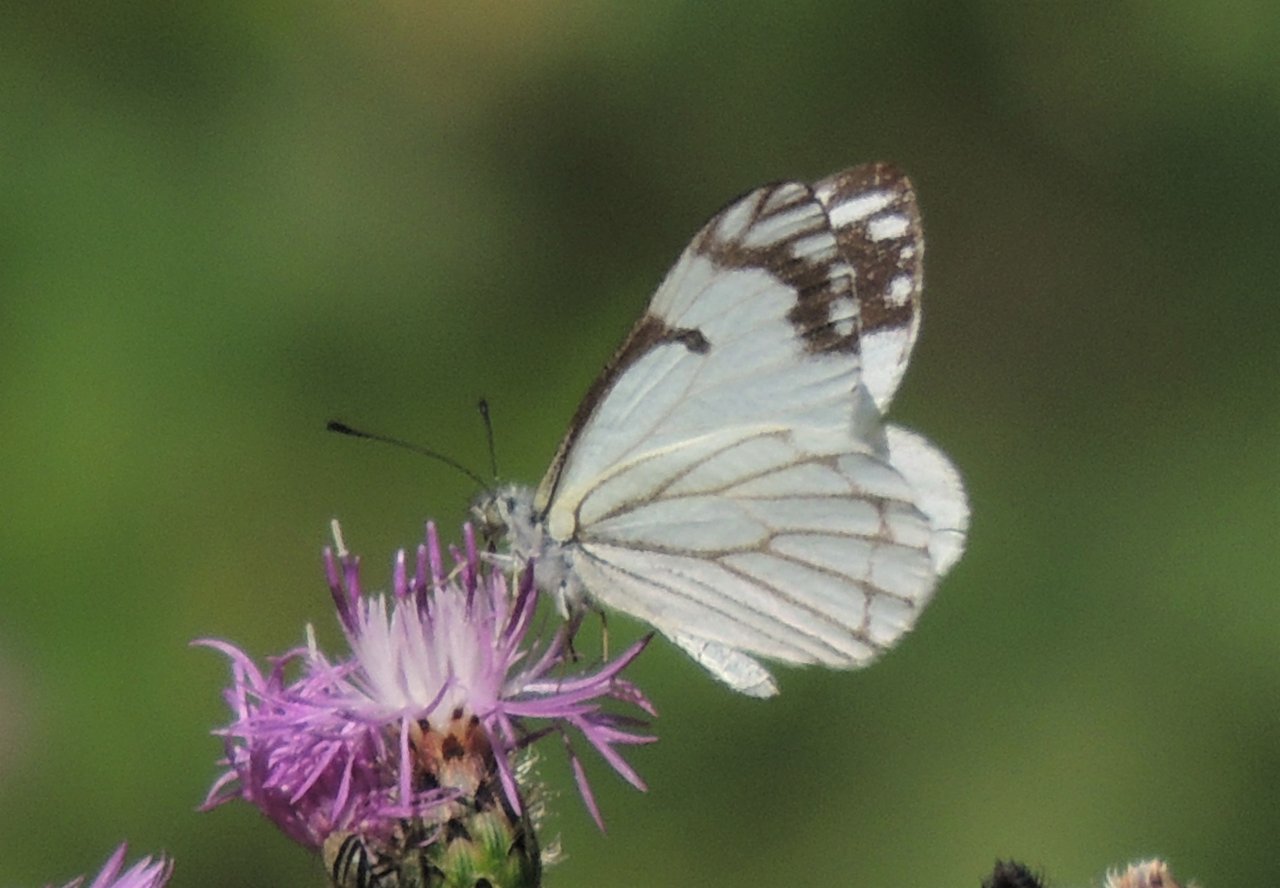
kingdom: Animalia
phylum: Arthropoda
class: Insecta
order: Lepidoptera
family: Pieridae
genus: Neophasia
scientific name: Neophasia menapia
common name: Pine White
